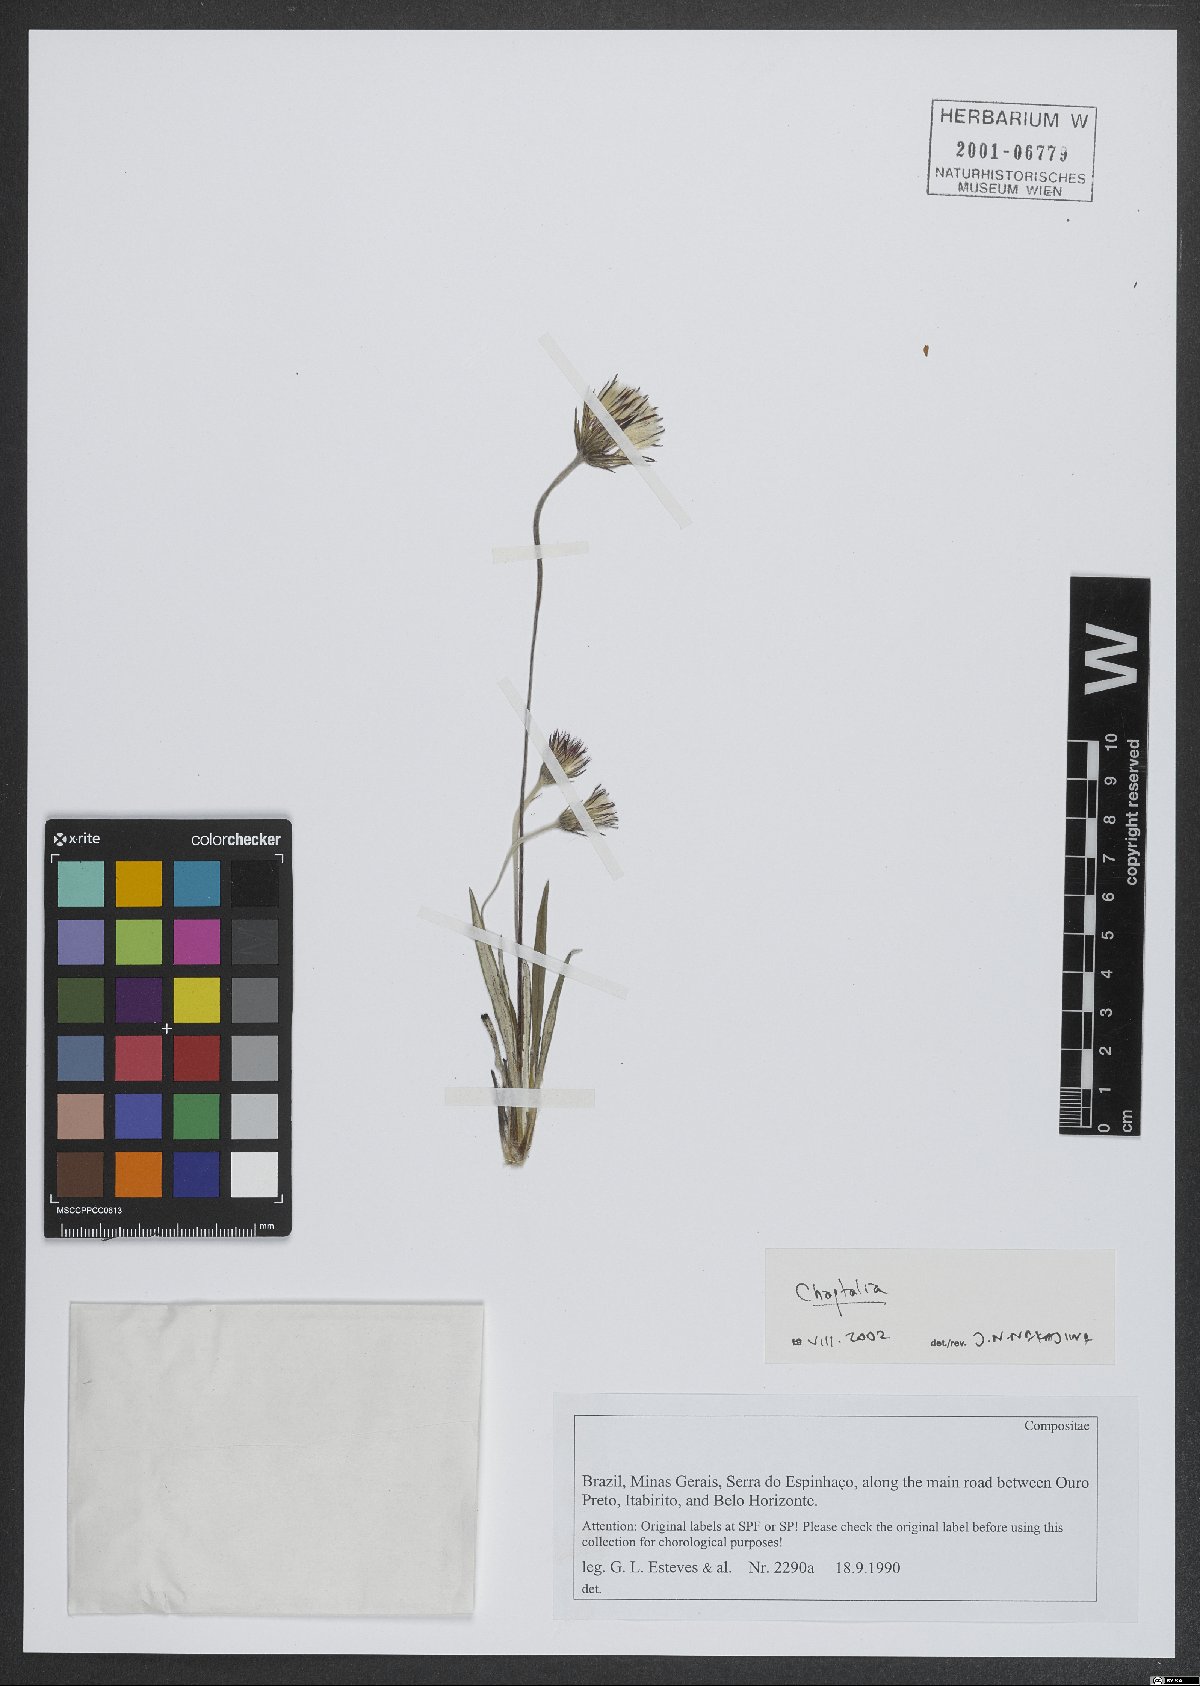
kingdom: Plantae
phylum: Tracheophyta
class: Magnoliopsida
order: Asterales
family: Asteraceae
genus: Chaptalia
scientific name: Chaptalia
